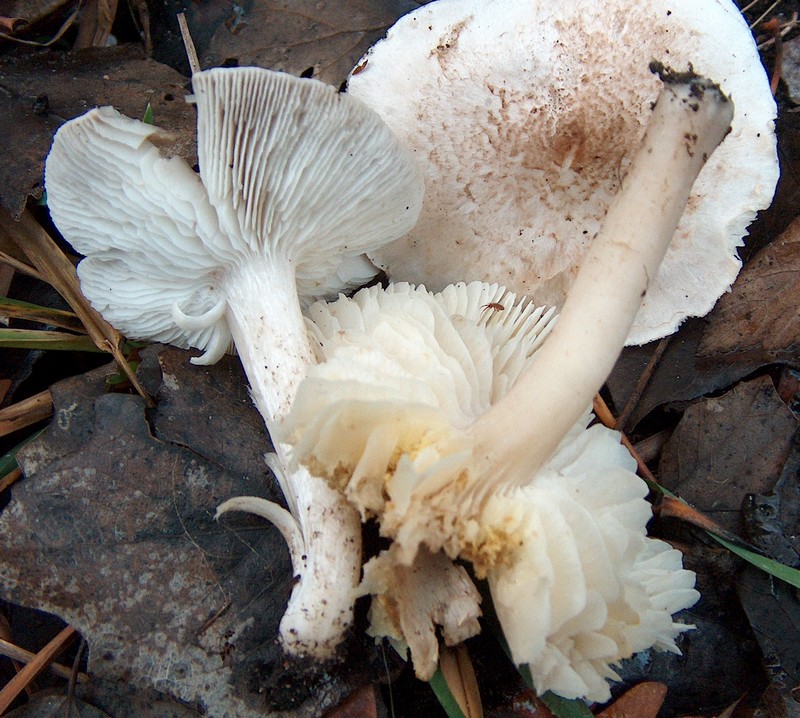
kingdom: Fungi
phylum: Basidiomycota
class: Agaricomycetes
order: Agaricales
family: Tricholomataceae
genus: Tricholoma
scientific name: Tricholoma scalpturatum
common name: gulplettet ridderhat
